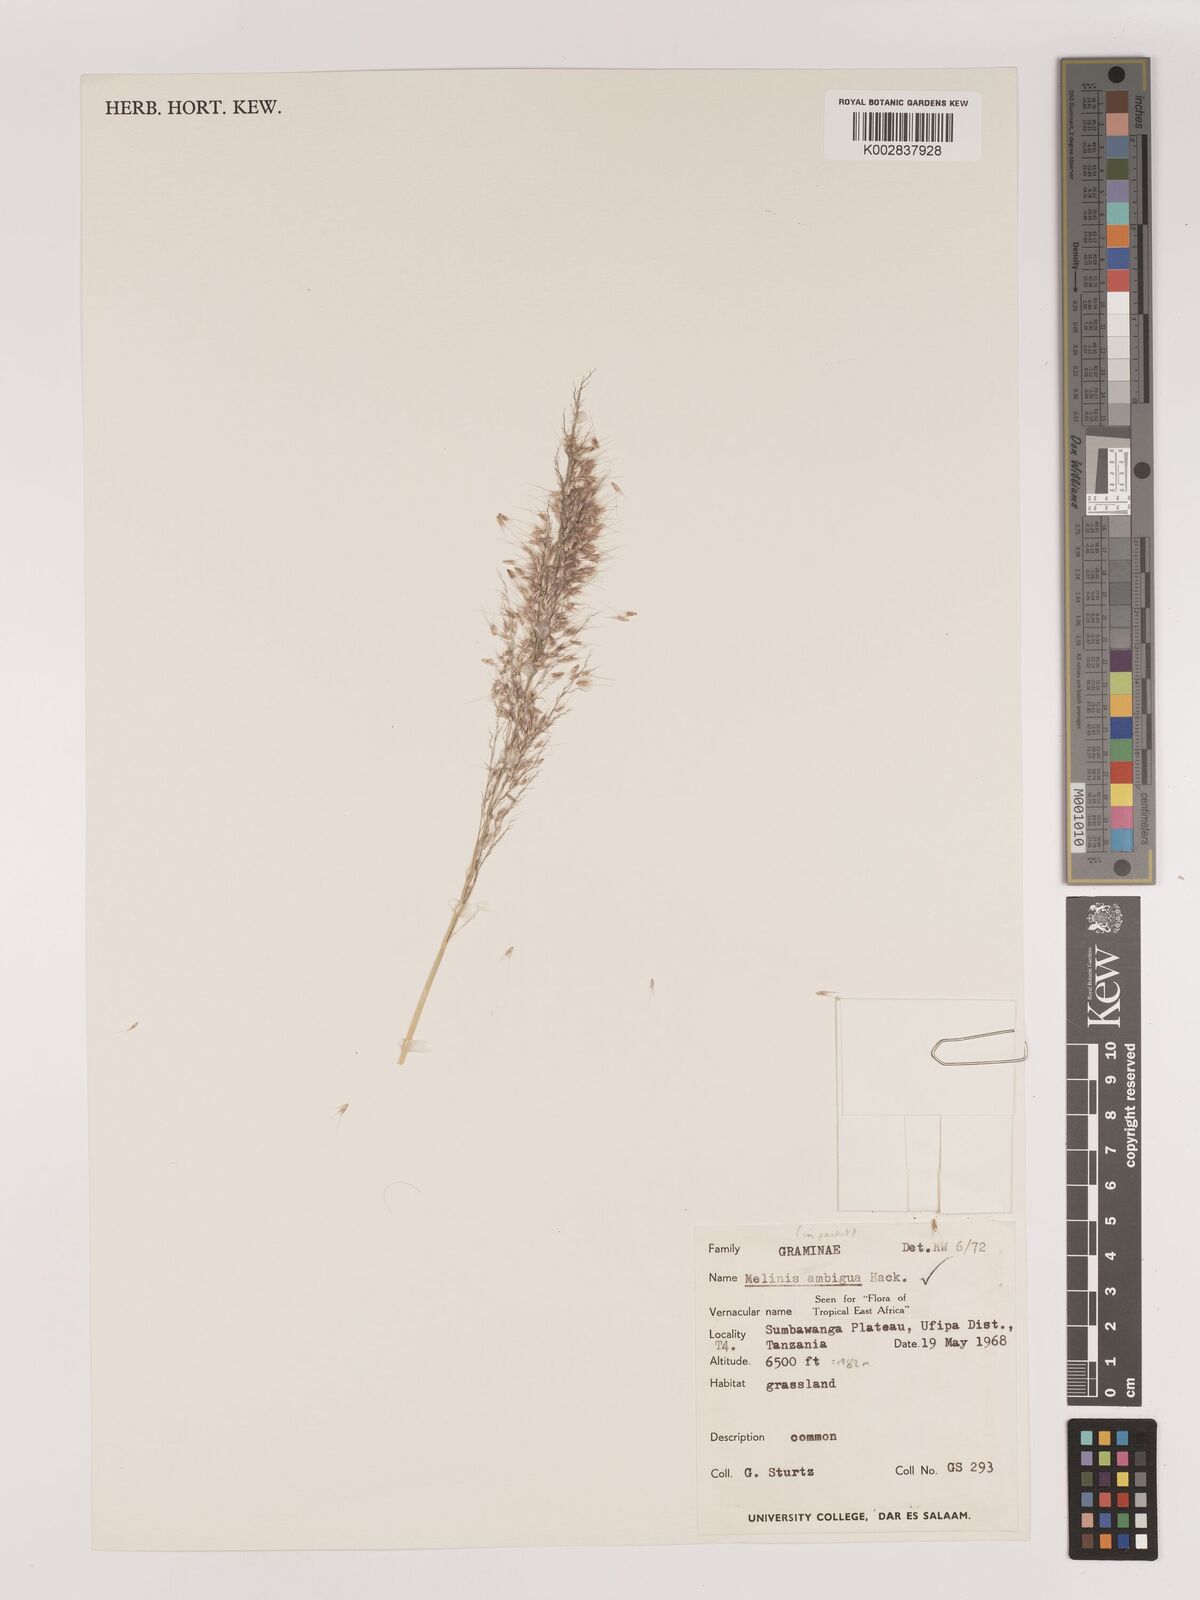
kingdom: Plantae
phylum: Tracheophyta
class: Liliopsida
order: Poales
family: Poaceae
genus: Melinis
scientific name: Melinis ambigua
